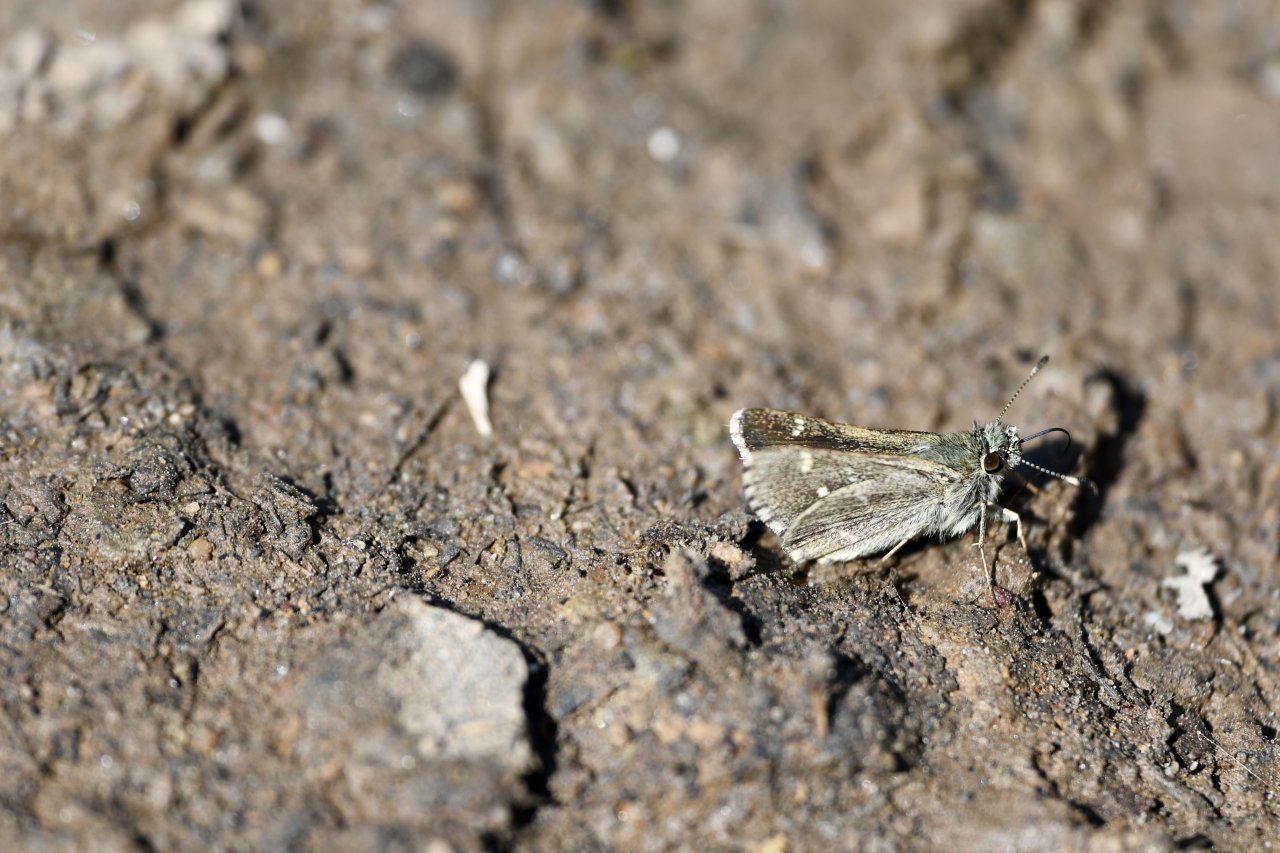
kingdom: Animalia
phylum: Arthropoda
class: Insecta
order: Lepidoptera
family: Hesperiidae
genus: Mastor
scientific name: Mastor hegon
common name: Pepper and Salt Skipper
